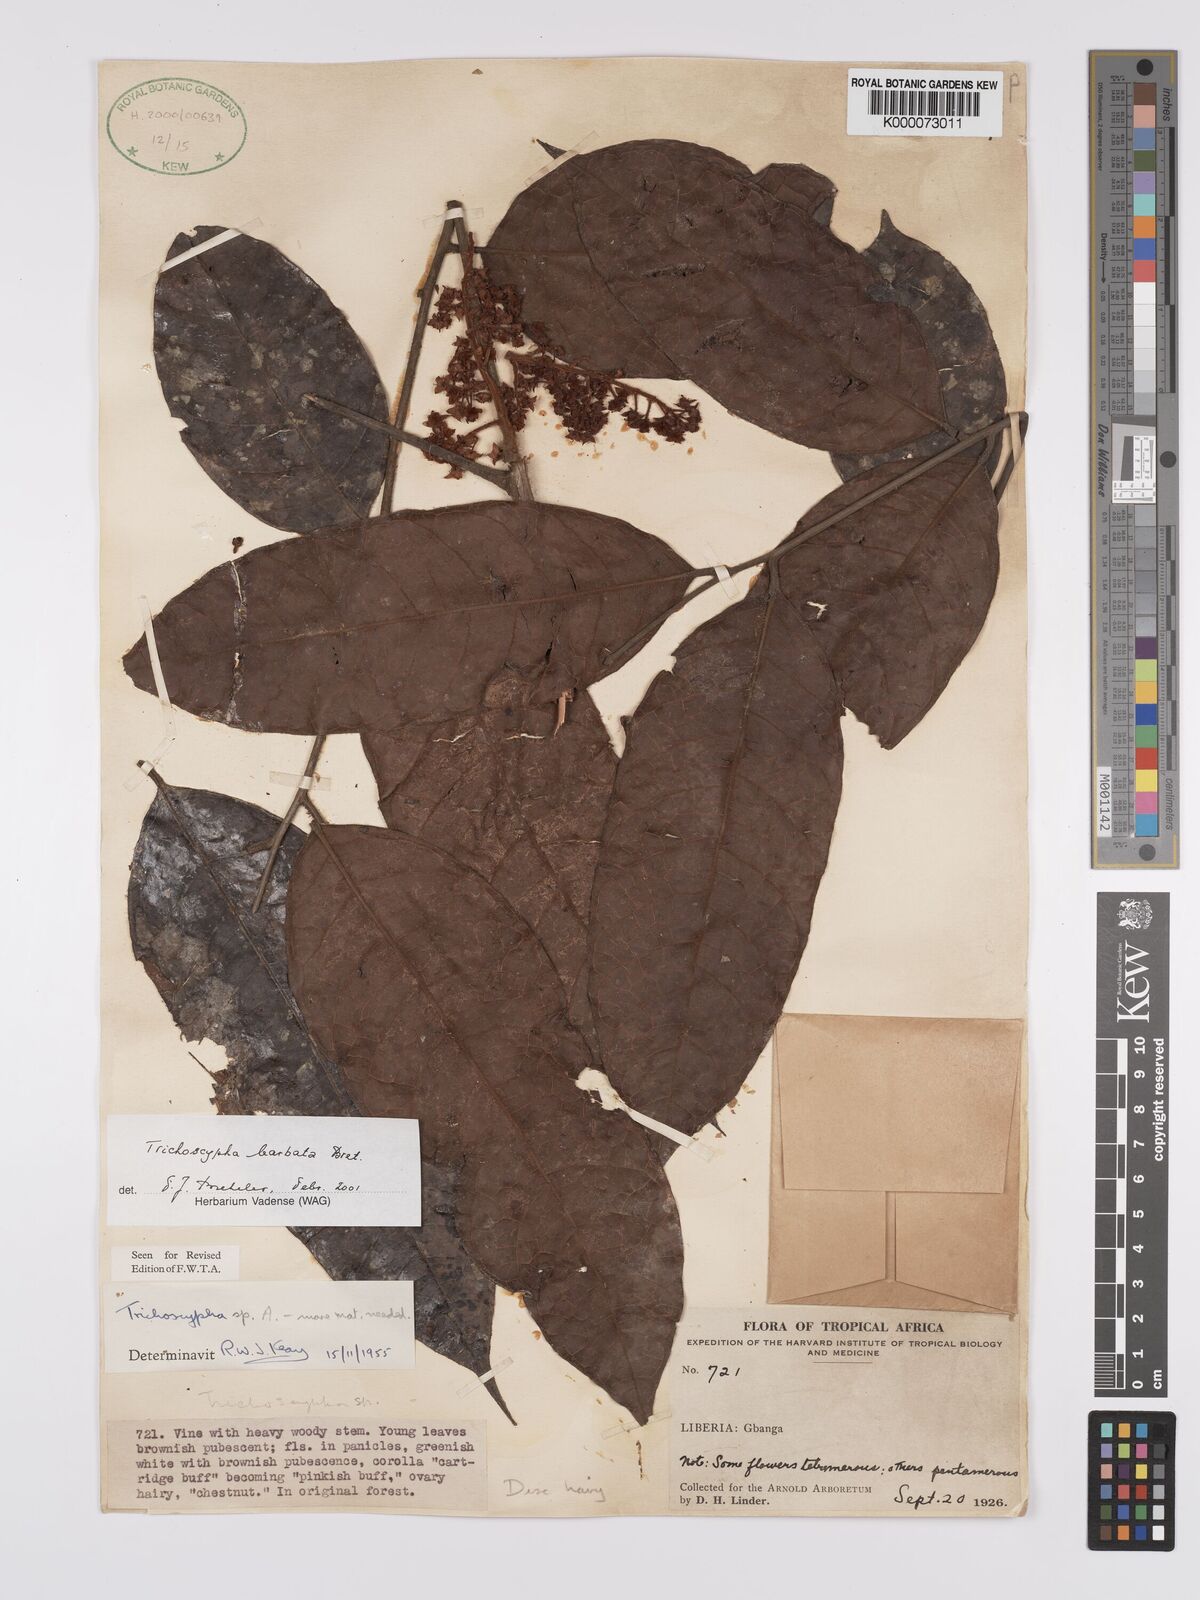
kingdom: Plantae
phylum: Tracheophyta
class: Magnoliopsida
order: Sapindales
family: Anacardiaceae
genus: Trichoscypha
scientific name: Trichoscypha barbata
